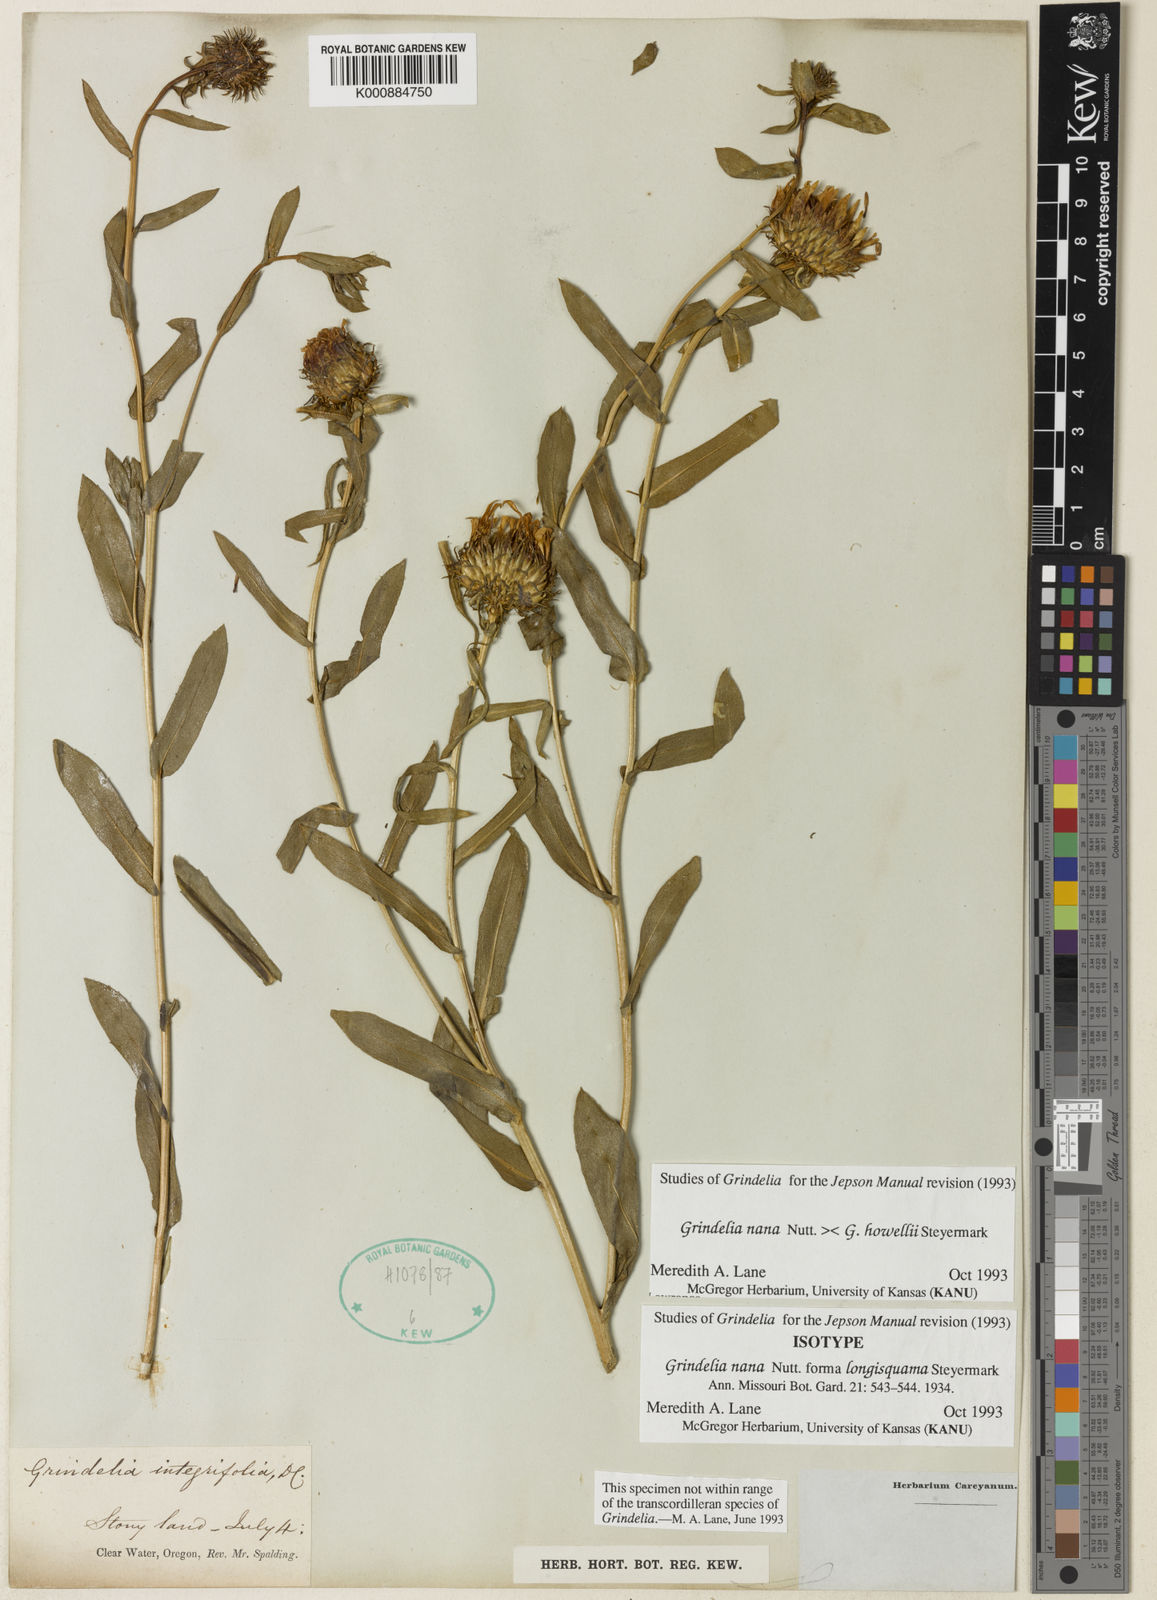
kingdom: Plantae
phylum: Tracheophyta
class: Magnoliopsida
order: Asterales
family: Asteraceae
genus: Grindelia
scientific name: Grindelia hirsutula
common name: Hairy gumweed
